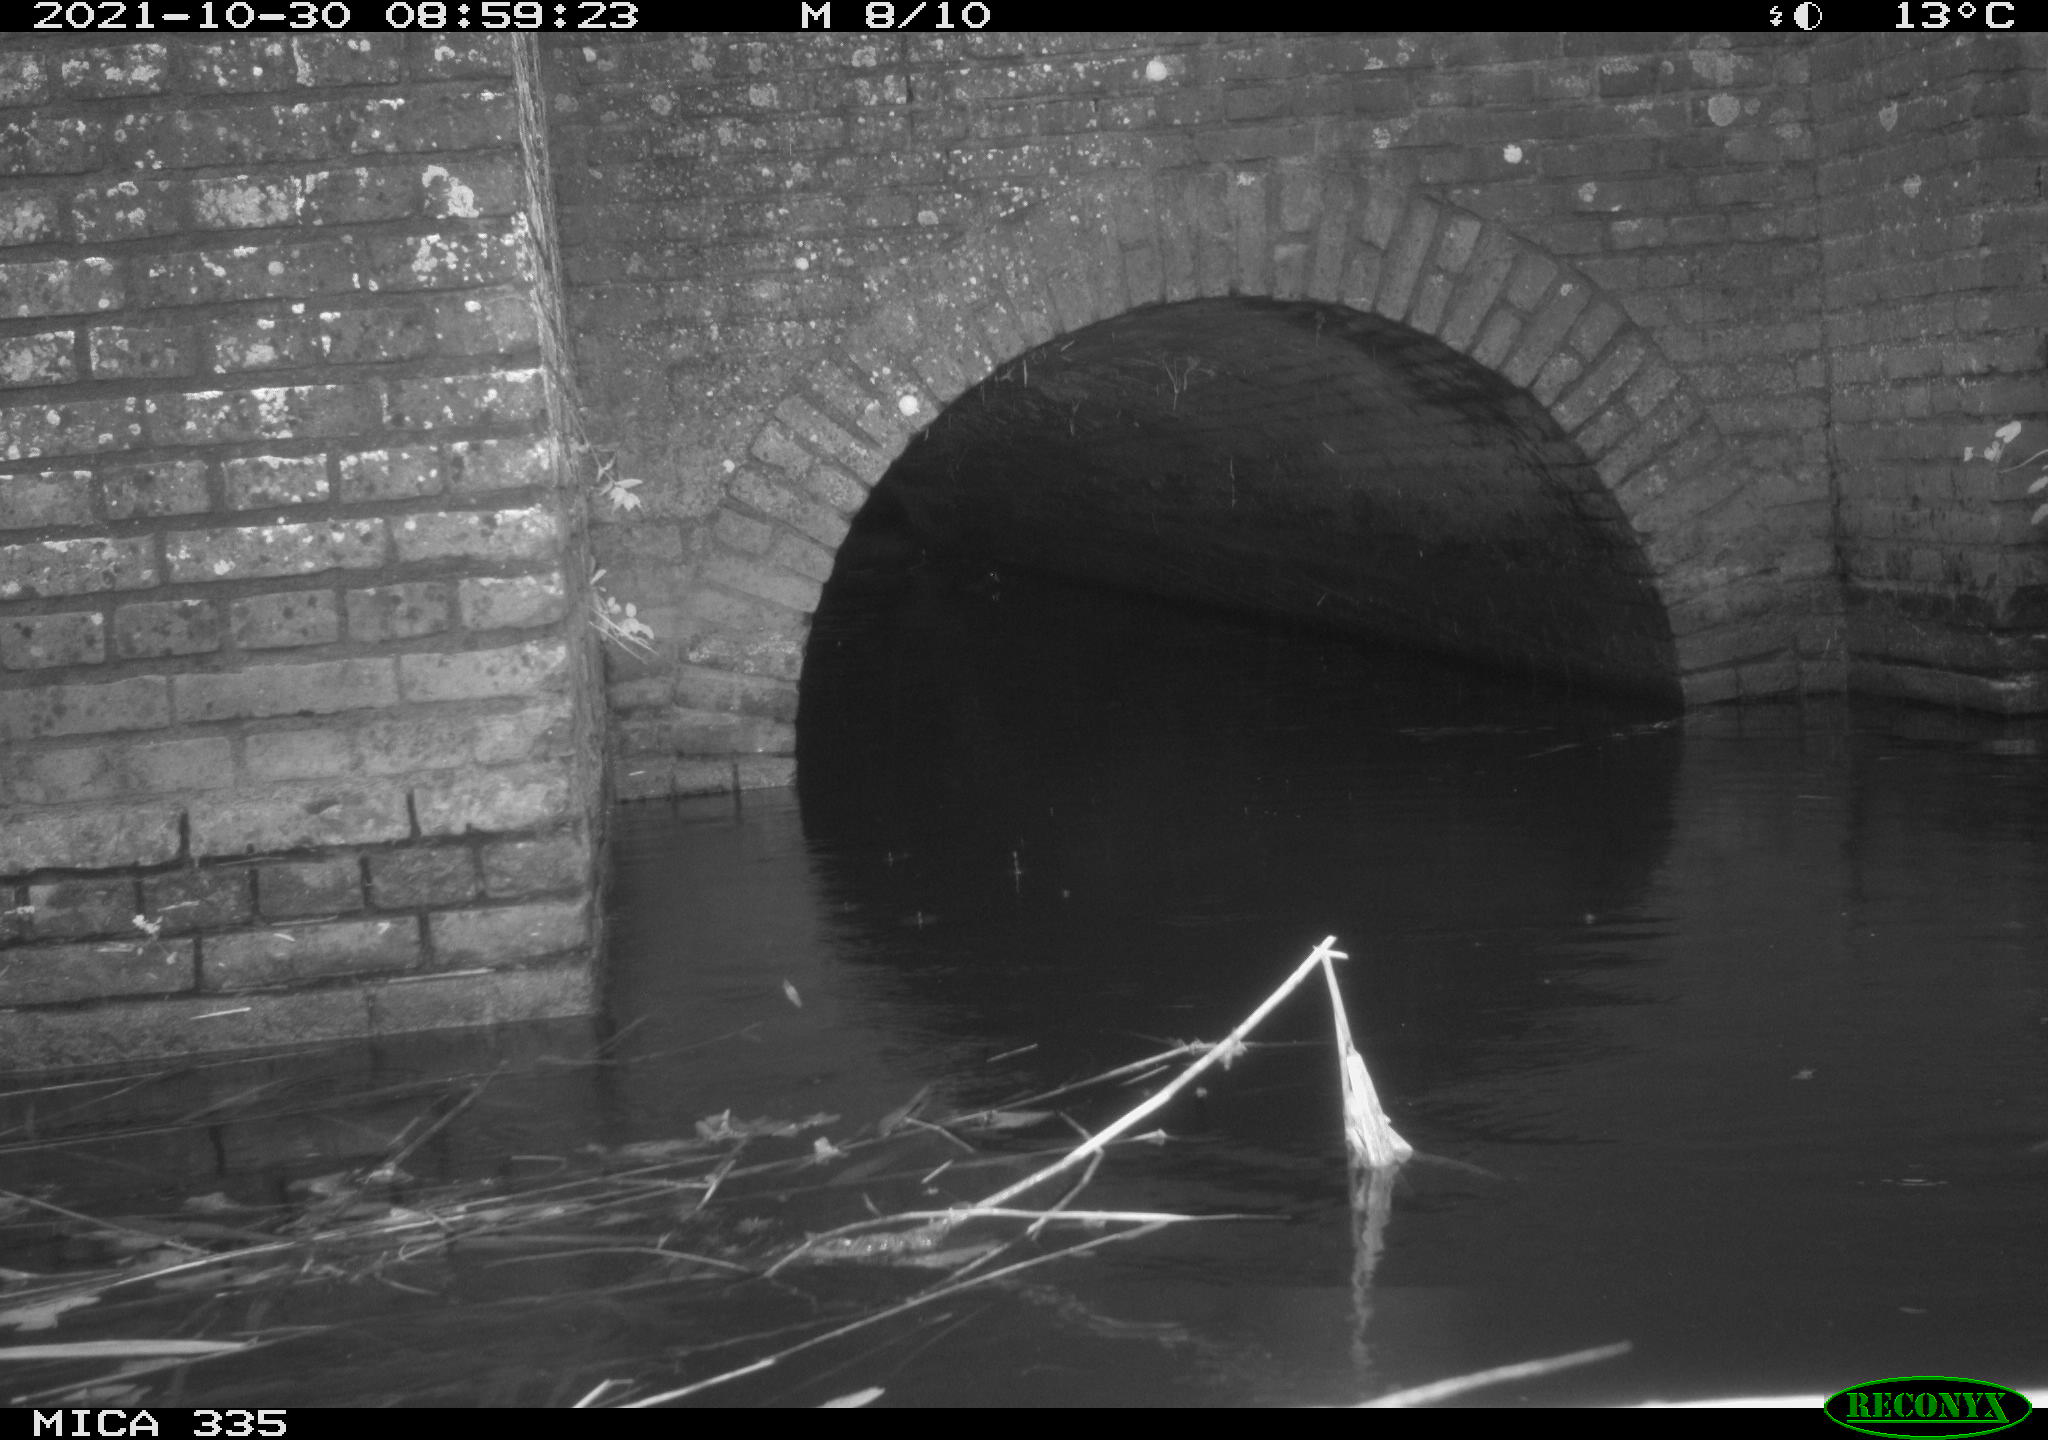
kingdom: Animalia
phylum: Chordata
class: Aves
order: Anseriformes
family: Anatidae
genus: Anas
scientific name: Anas platyrhynchos
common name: Mallard
